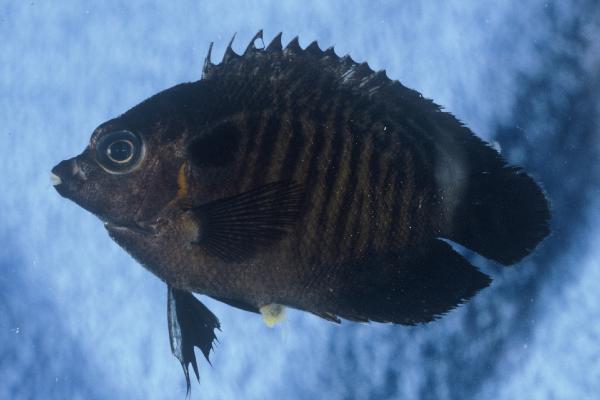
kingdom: Animalia
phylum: Chordata
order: Perciformes
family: Pomacanthidae
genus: Centropyge
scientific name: Centropyge multispinis
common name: Many-spined angelfish
